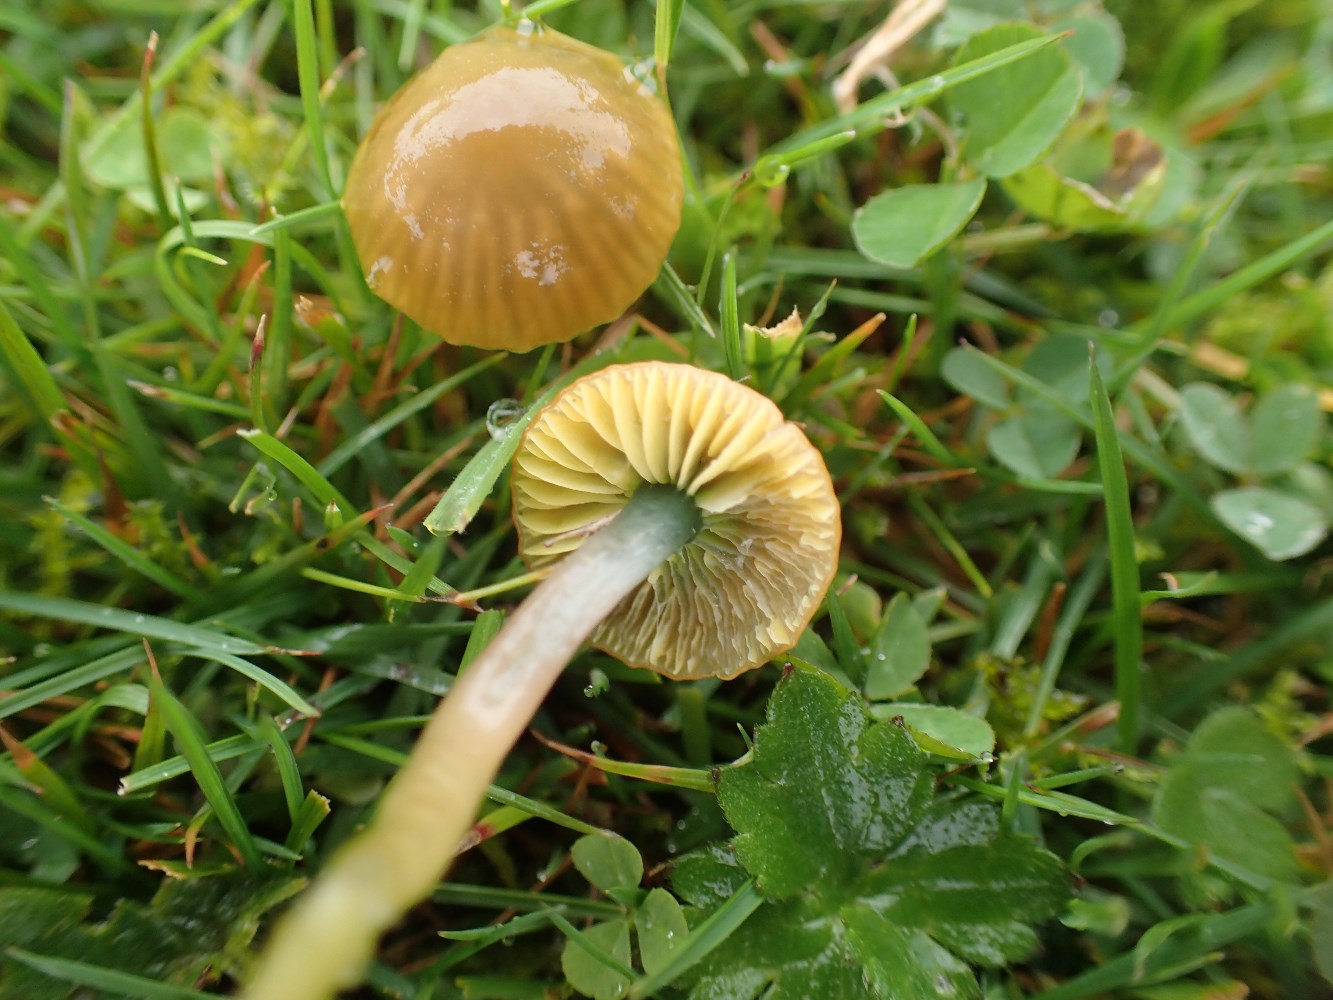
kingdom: Fungi
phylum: Basidiomycota
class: Agaricomycetes
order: Agaricales
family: Hygrophoraceae
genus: Gliophorus
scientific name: Gliophorus psittacinus
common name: papegøje-vokshat
